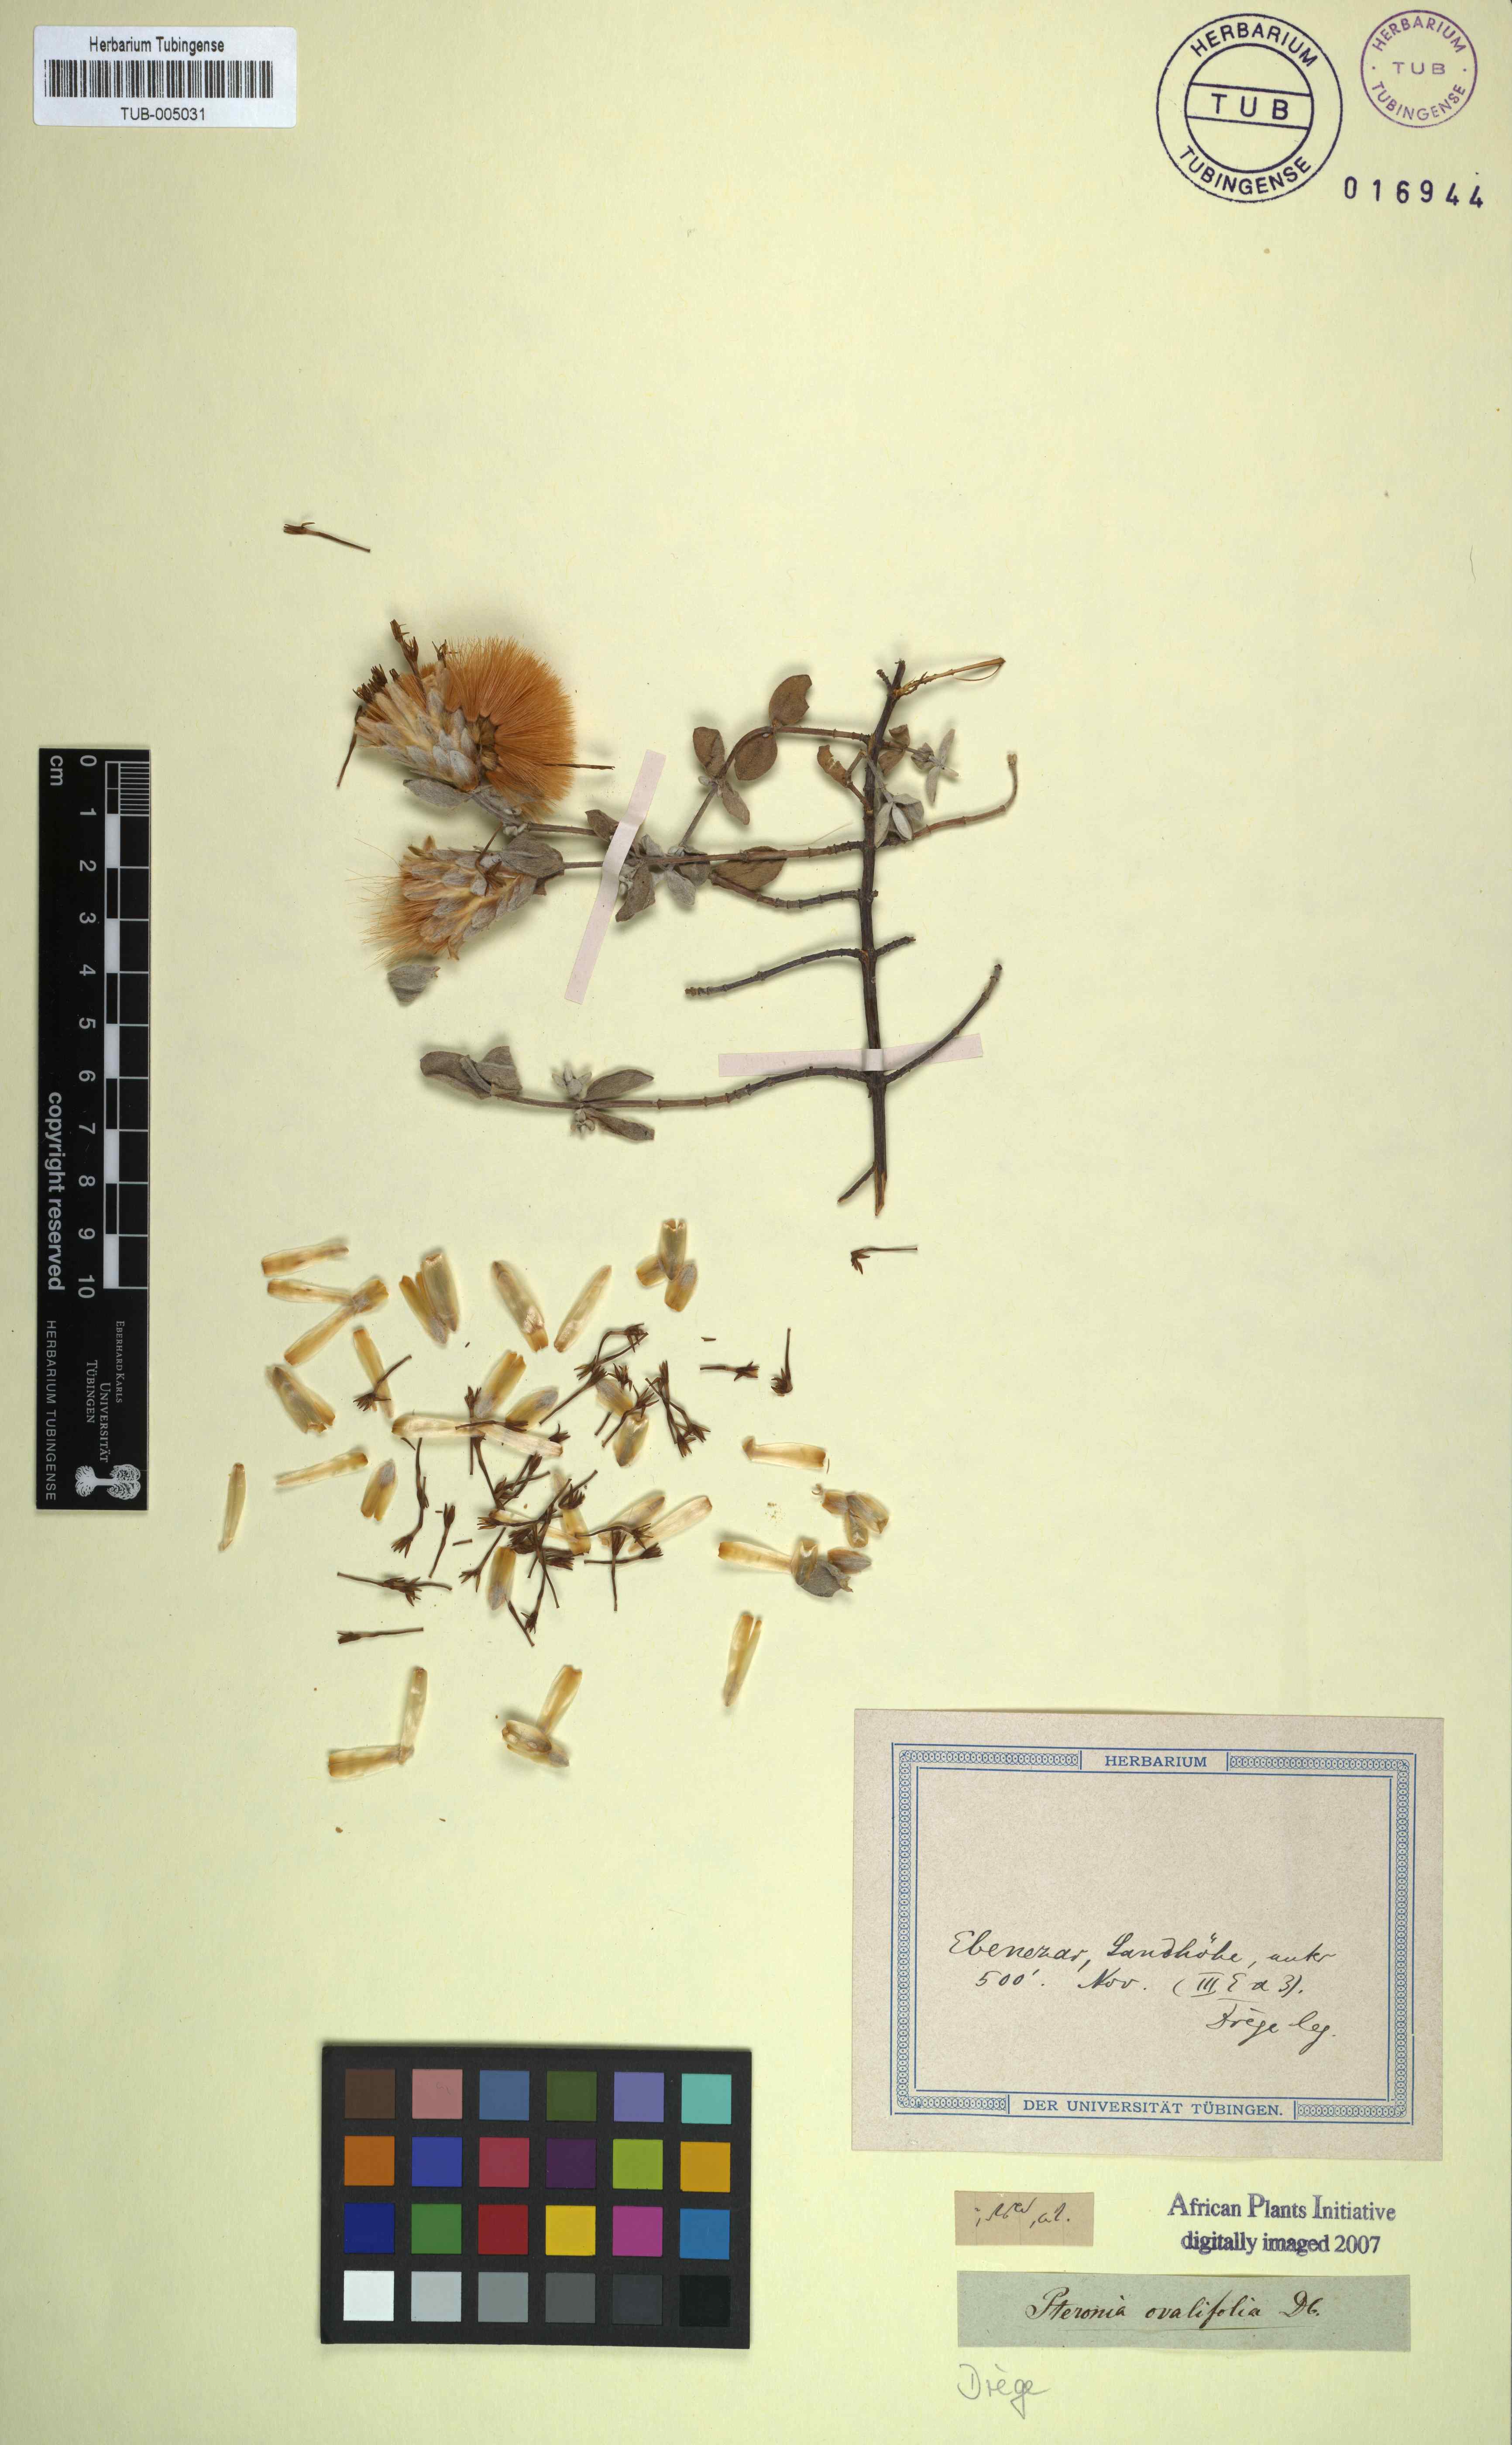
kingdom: Plantae
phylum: Tracheophyta
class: Magnoliopsida
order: Asterales
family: Asteraceae
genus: Pteronia
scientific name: Pteronia ovalifolia
